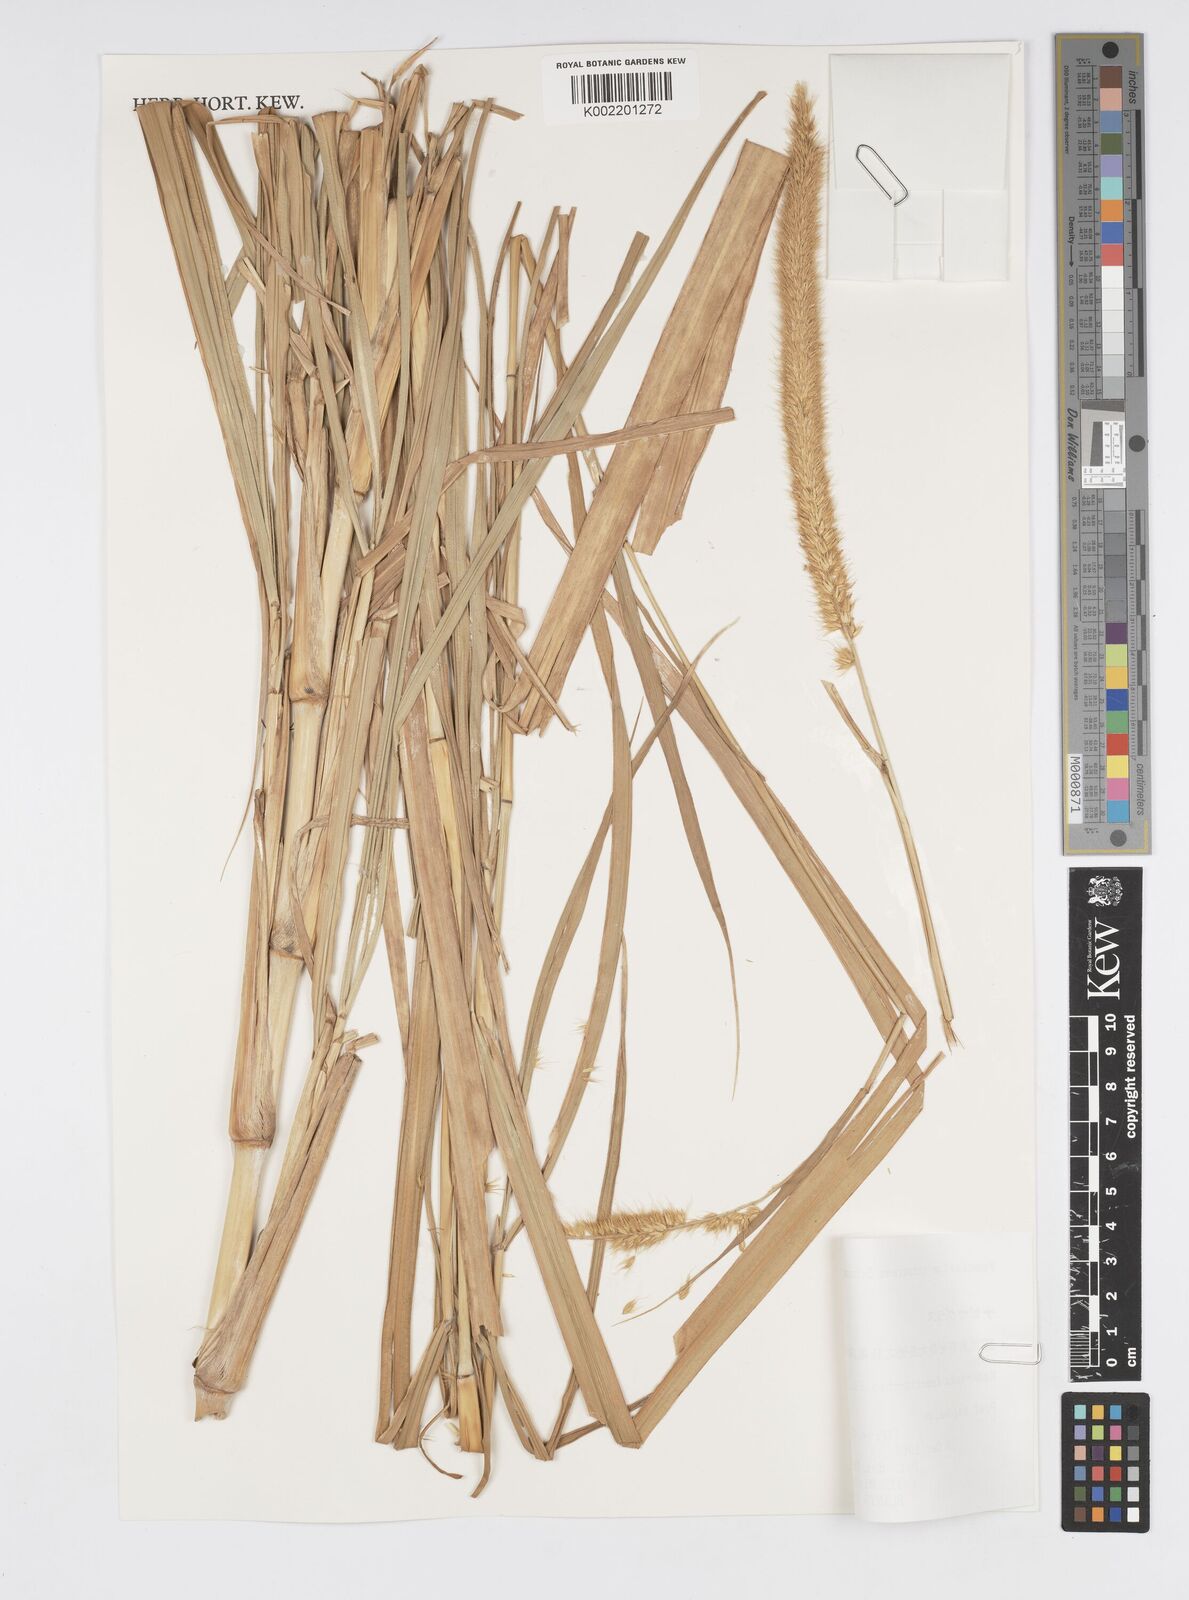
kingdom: Plantae
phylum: Tracheophyta
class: Liliopsida
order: Poales
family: Poaceae
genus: Cenchrus
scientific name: Cenchrus purpureus
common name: Elephant grass
